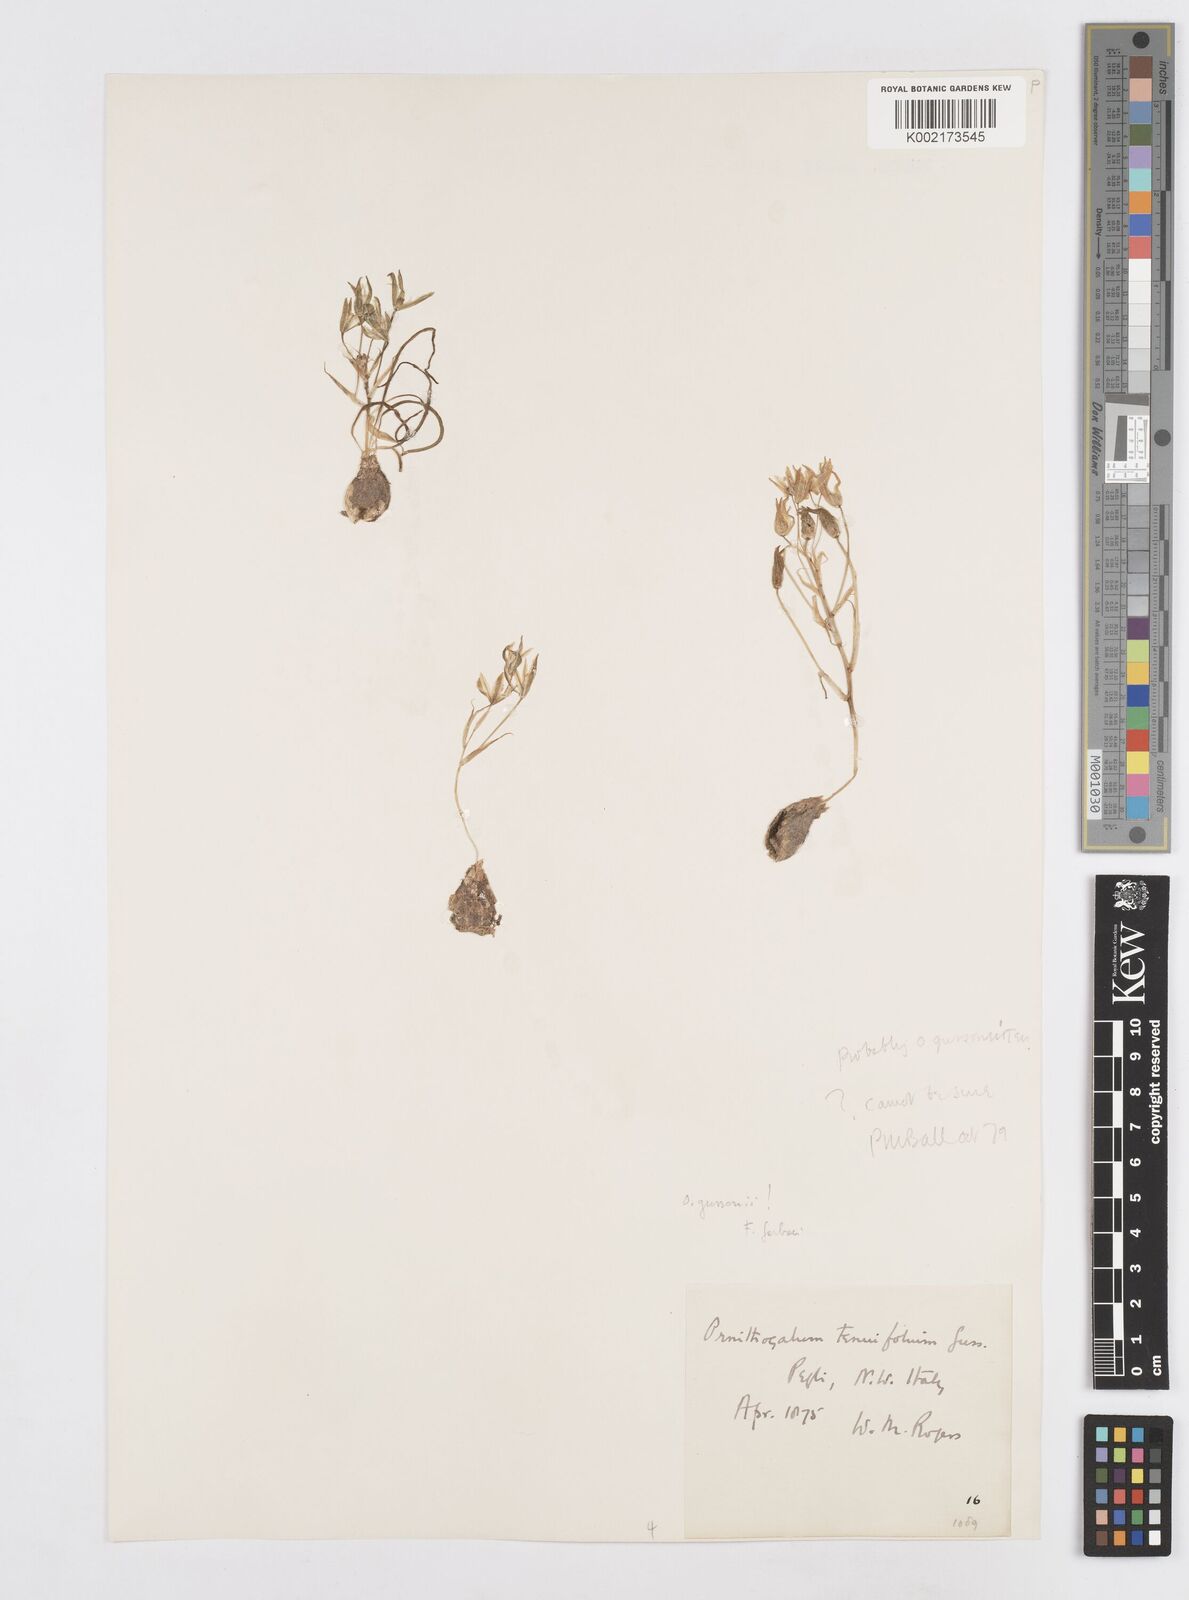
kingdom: Plantae
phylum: Tracheophyta
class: Liliopsida
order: Asparagales
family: Asparagaceae
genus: Ornithogalum
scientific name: Ornithogalum gussonei
